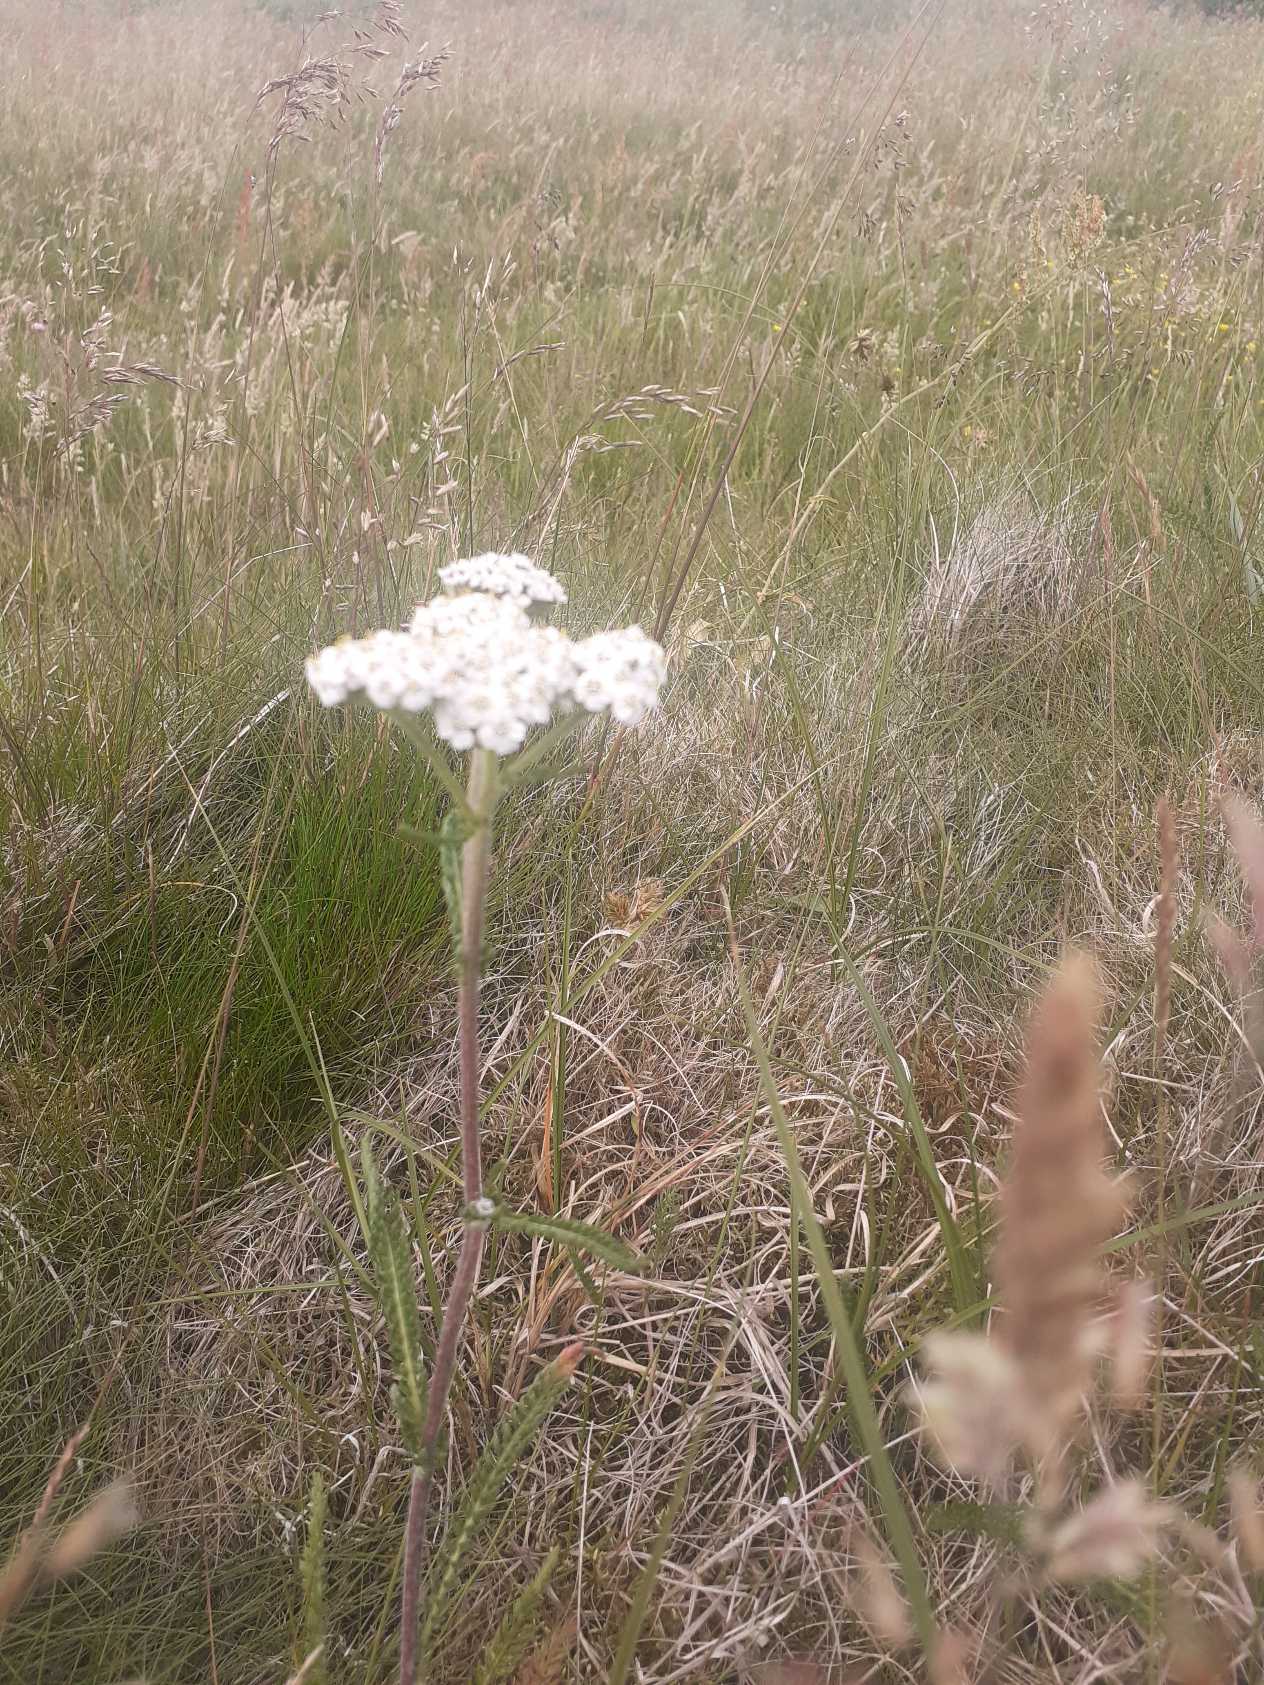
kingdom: Plantae
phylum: Tracheophyta
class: Magnoliopsida
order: Asterales
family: Asteraceae
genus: Achillea
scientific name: Achillea millefolium
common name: Almindelig røllike
